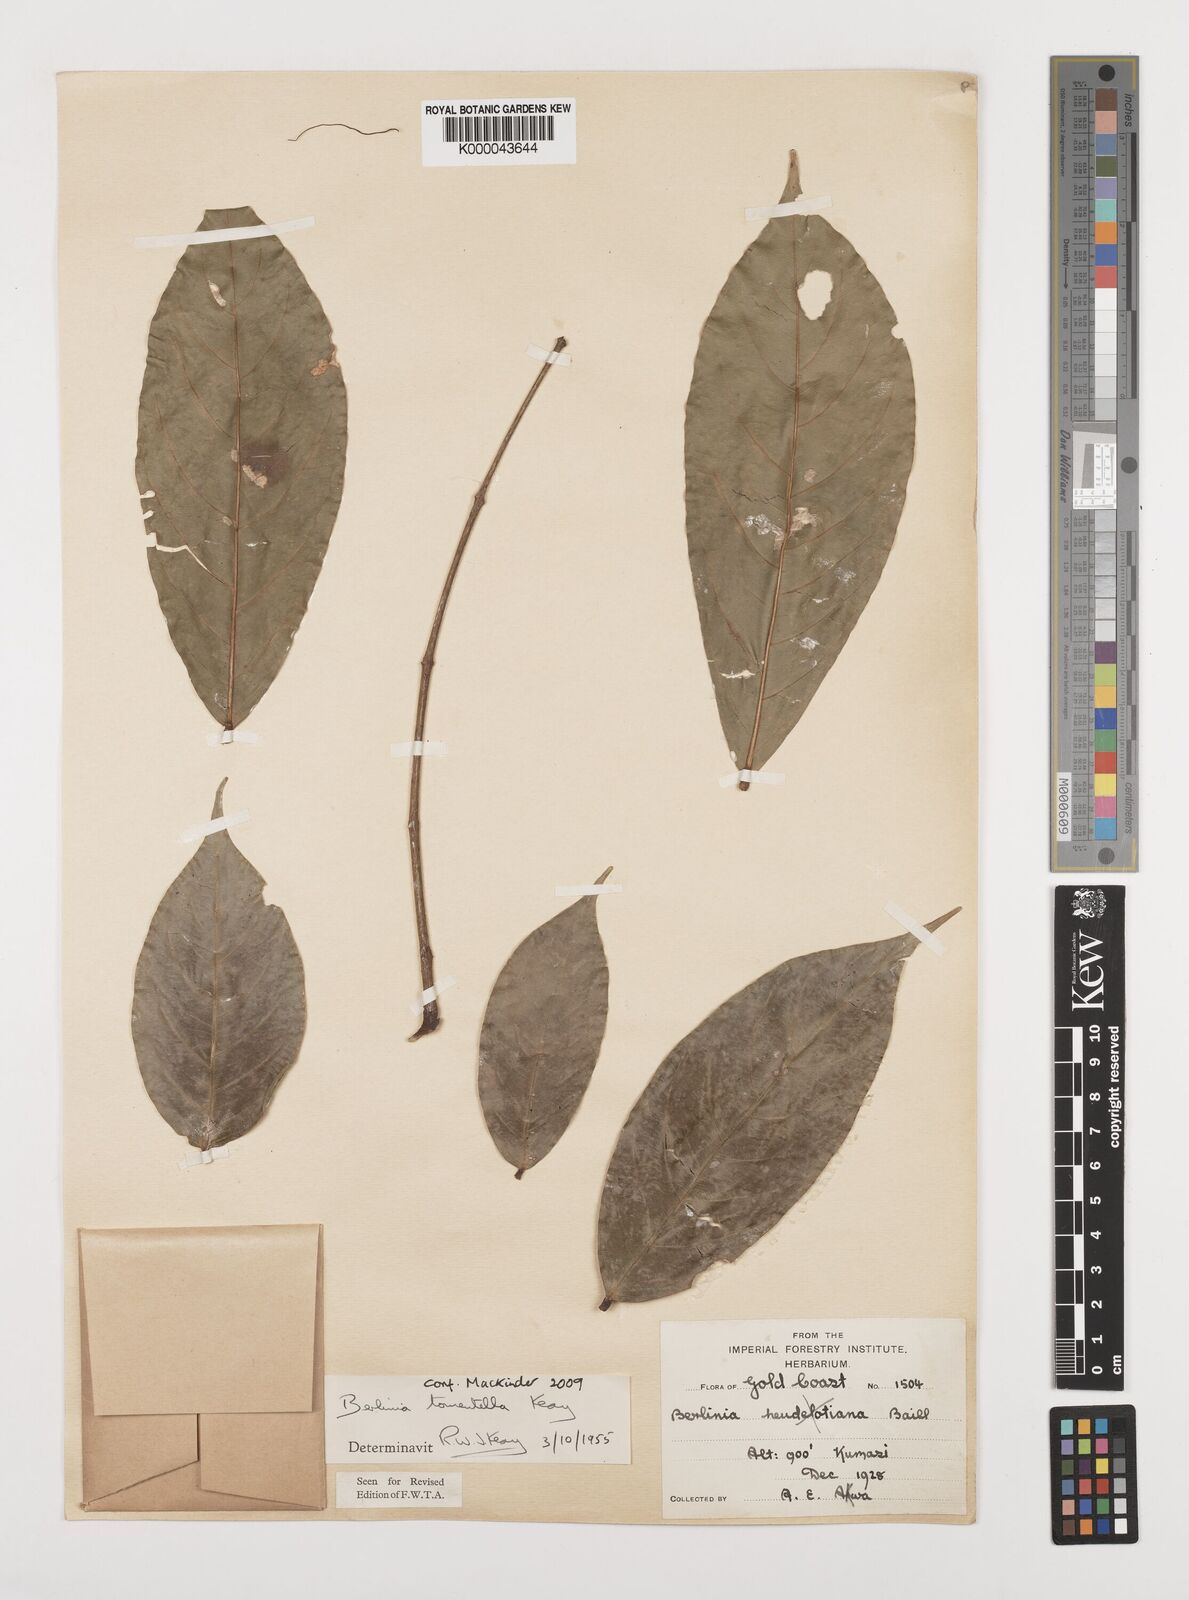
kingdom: Plantae
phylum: Tracheophyta
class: Magnoliopsida
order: Fabales
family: Fabaceae
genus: Berlinia
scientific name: Berlinia tomentella
